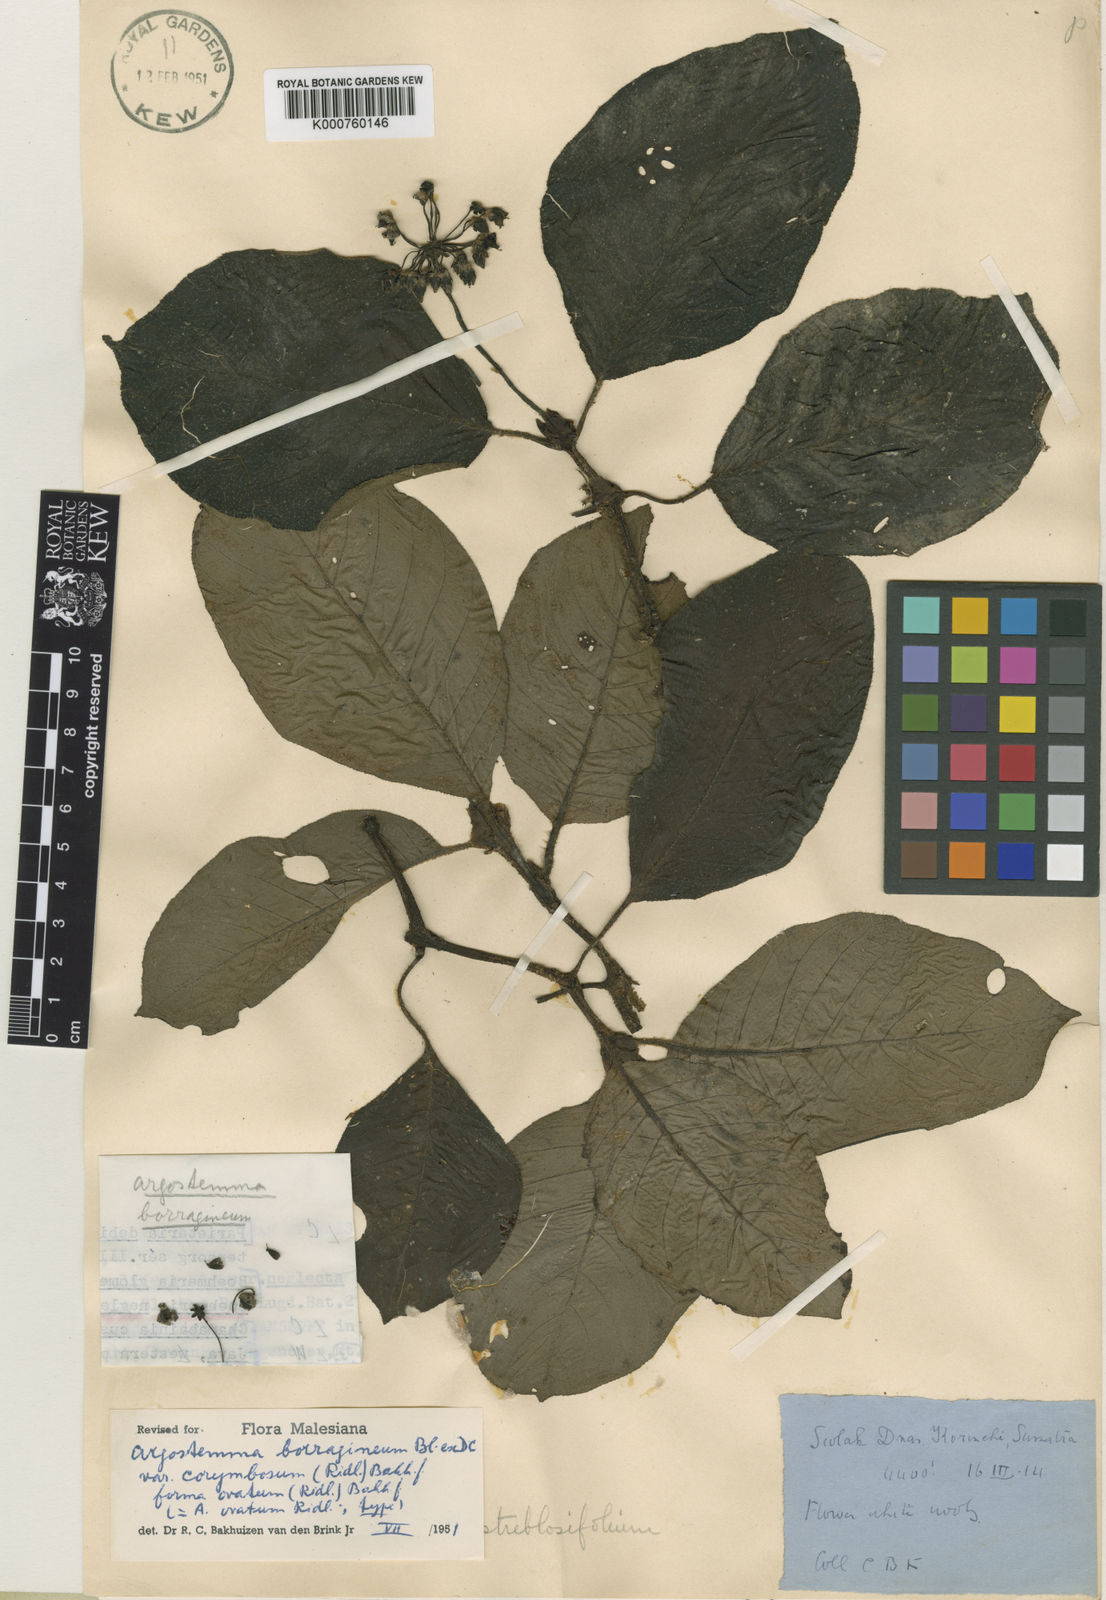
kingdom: Plantae
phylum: Tracheophyta
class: Magnoliopsida
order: Gentianales
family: Rubiaceae
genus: Argostemma
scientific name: Argostemma borragineum
